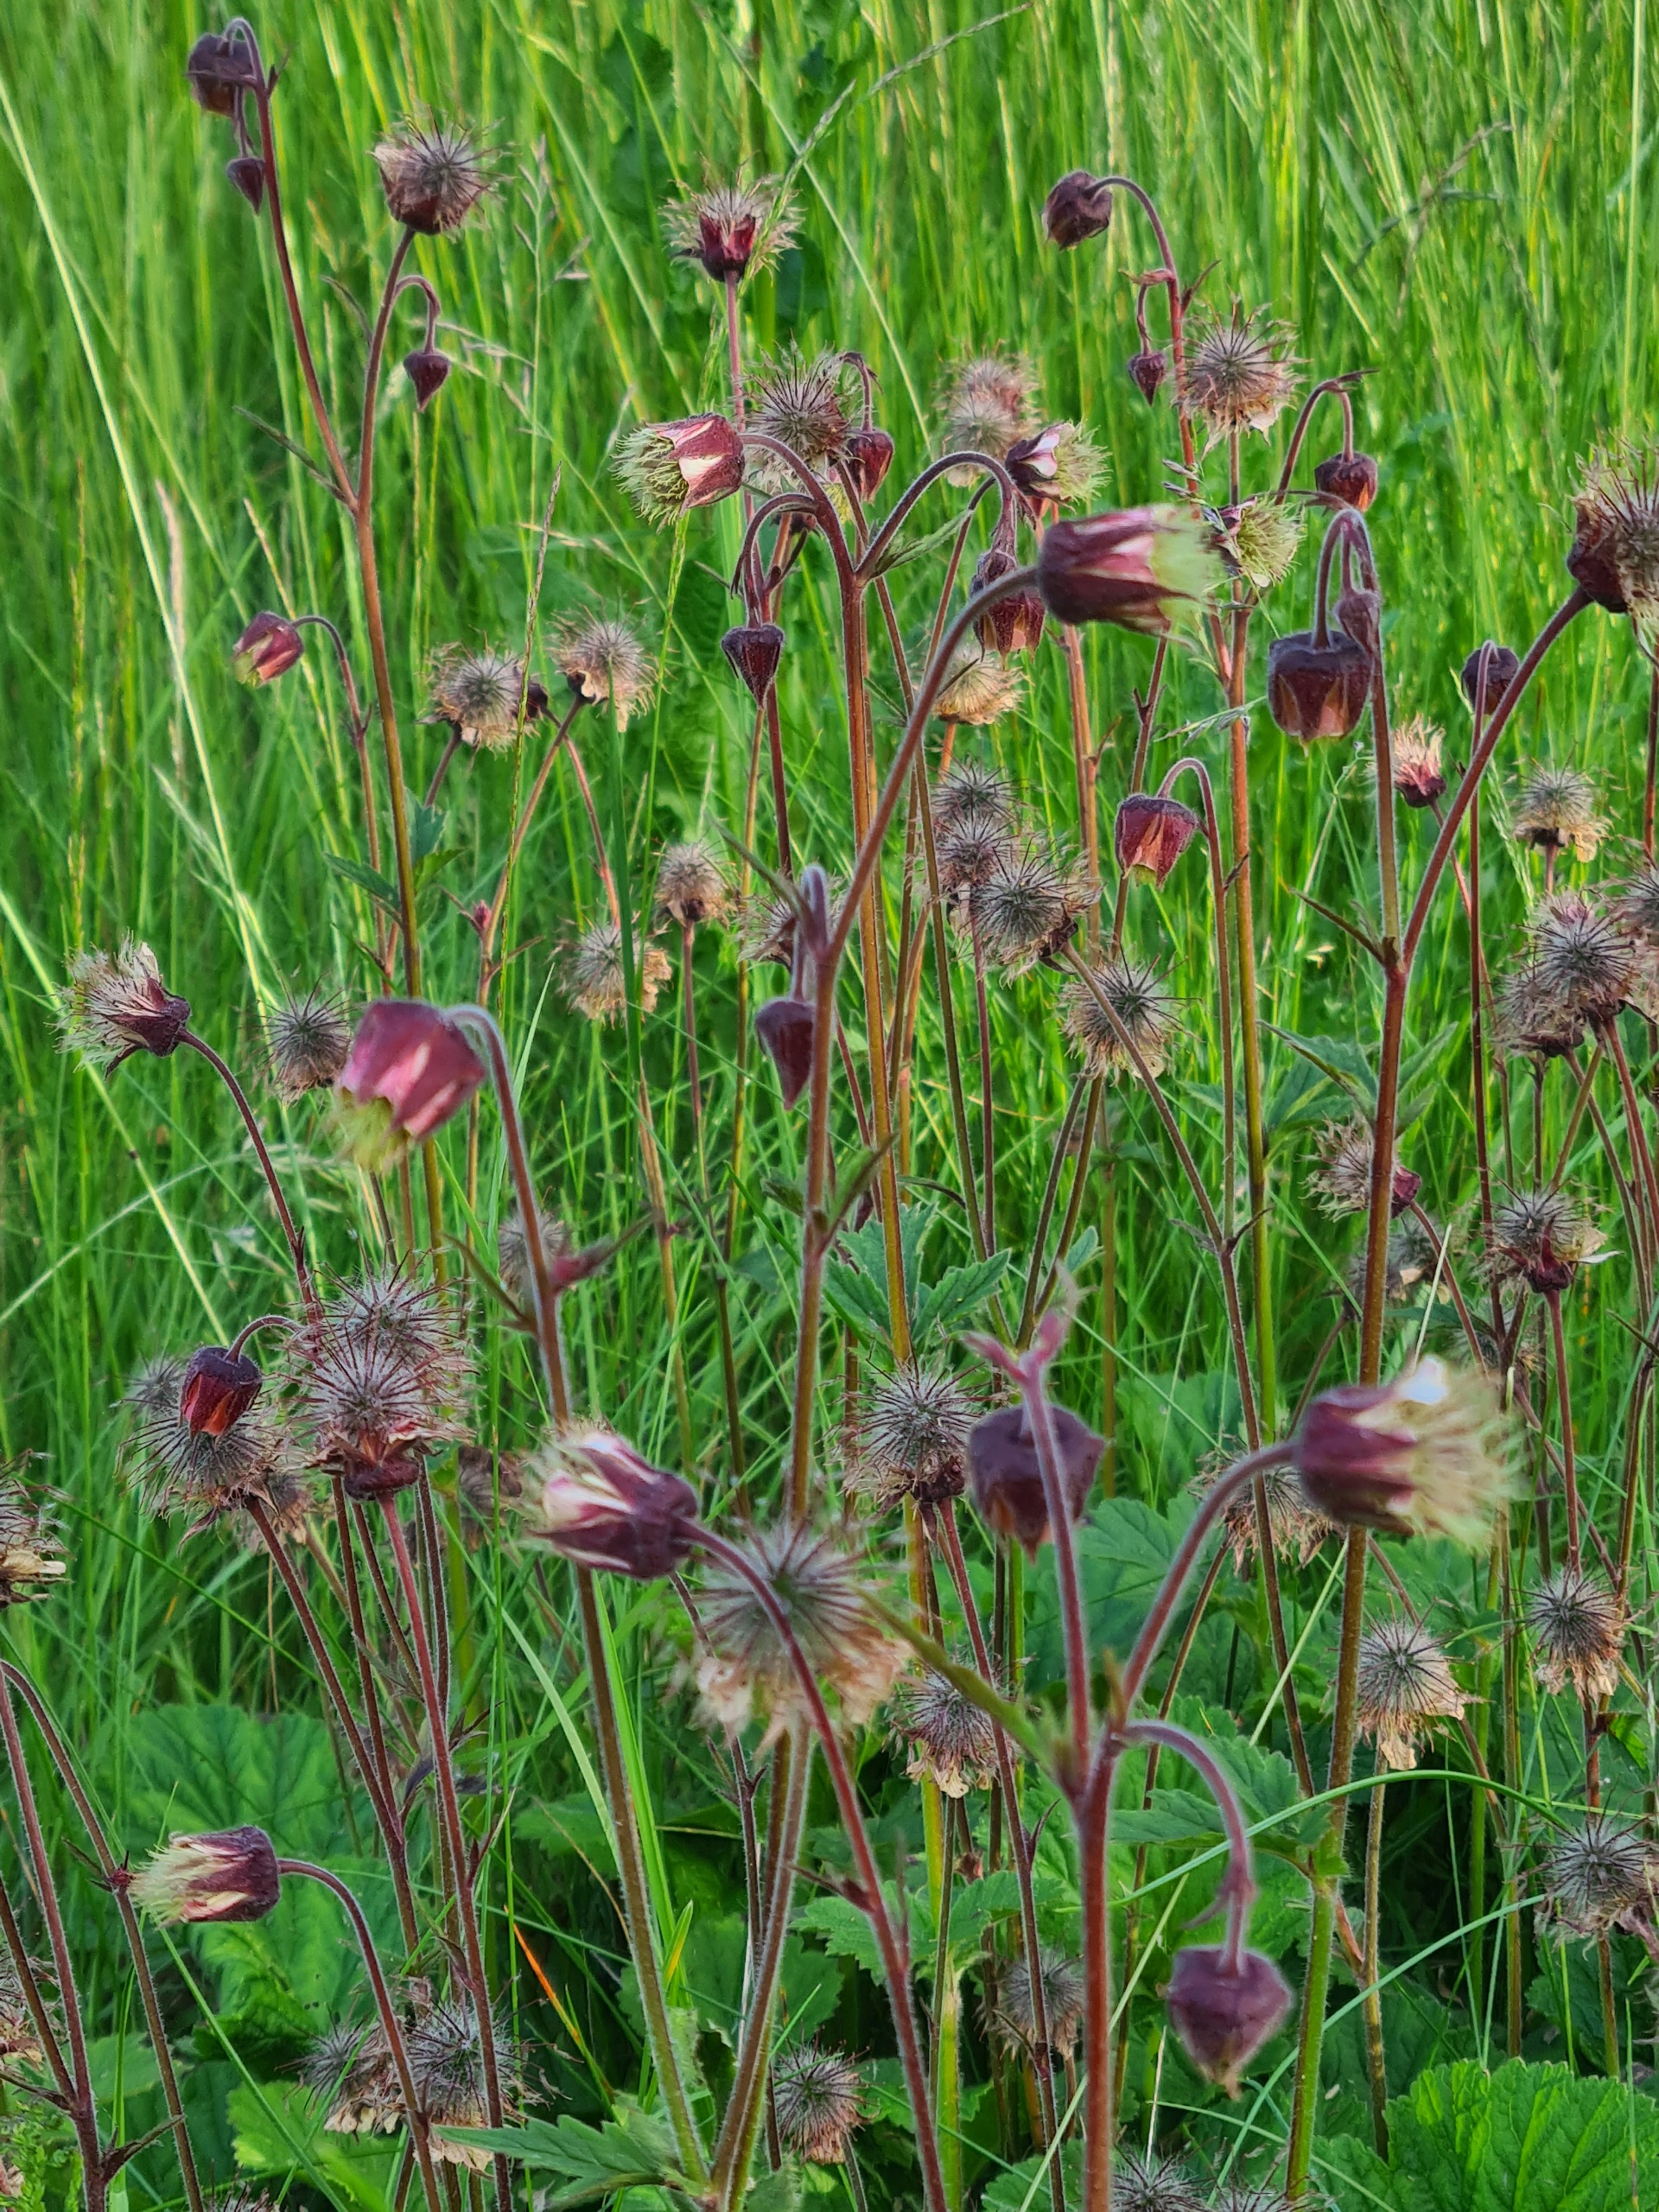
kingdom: Plantae
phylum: Tracheophyta
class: Magnoliopsida
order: Rosales
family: Rosaceae
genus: Geum
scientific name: Geum rivale
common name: Eng-nellikerod
